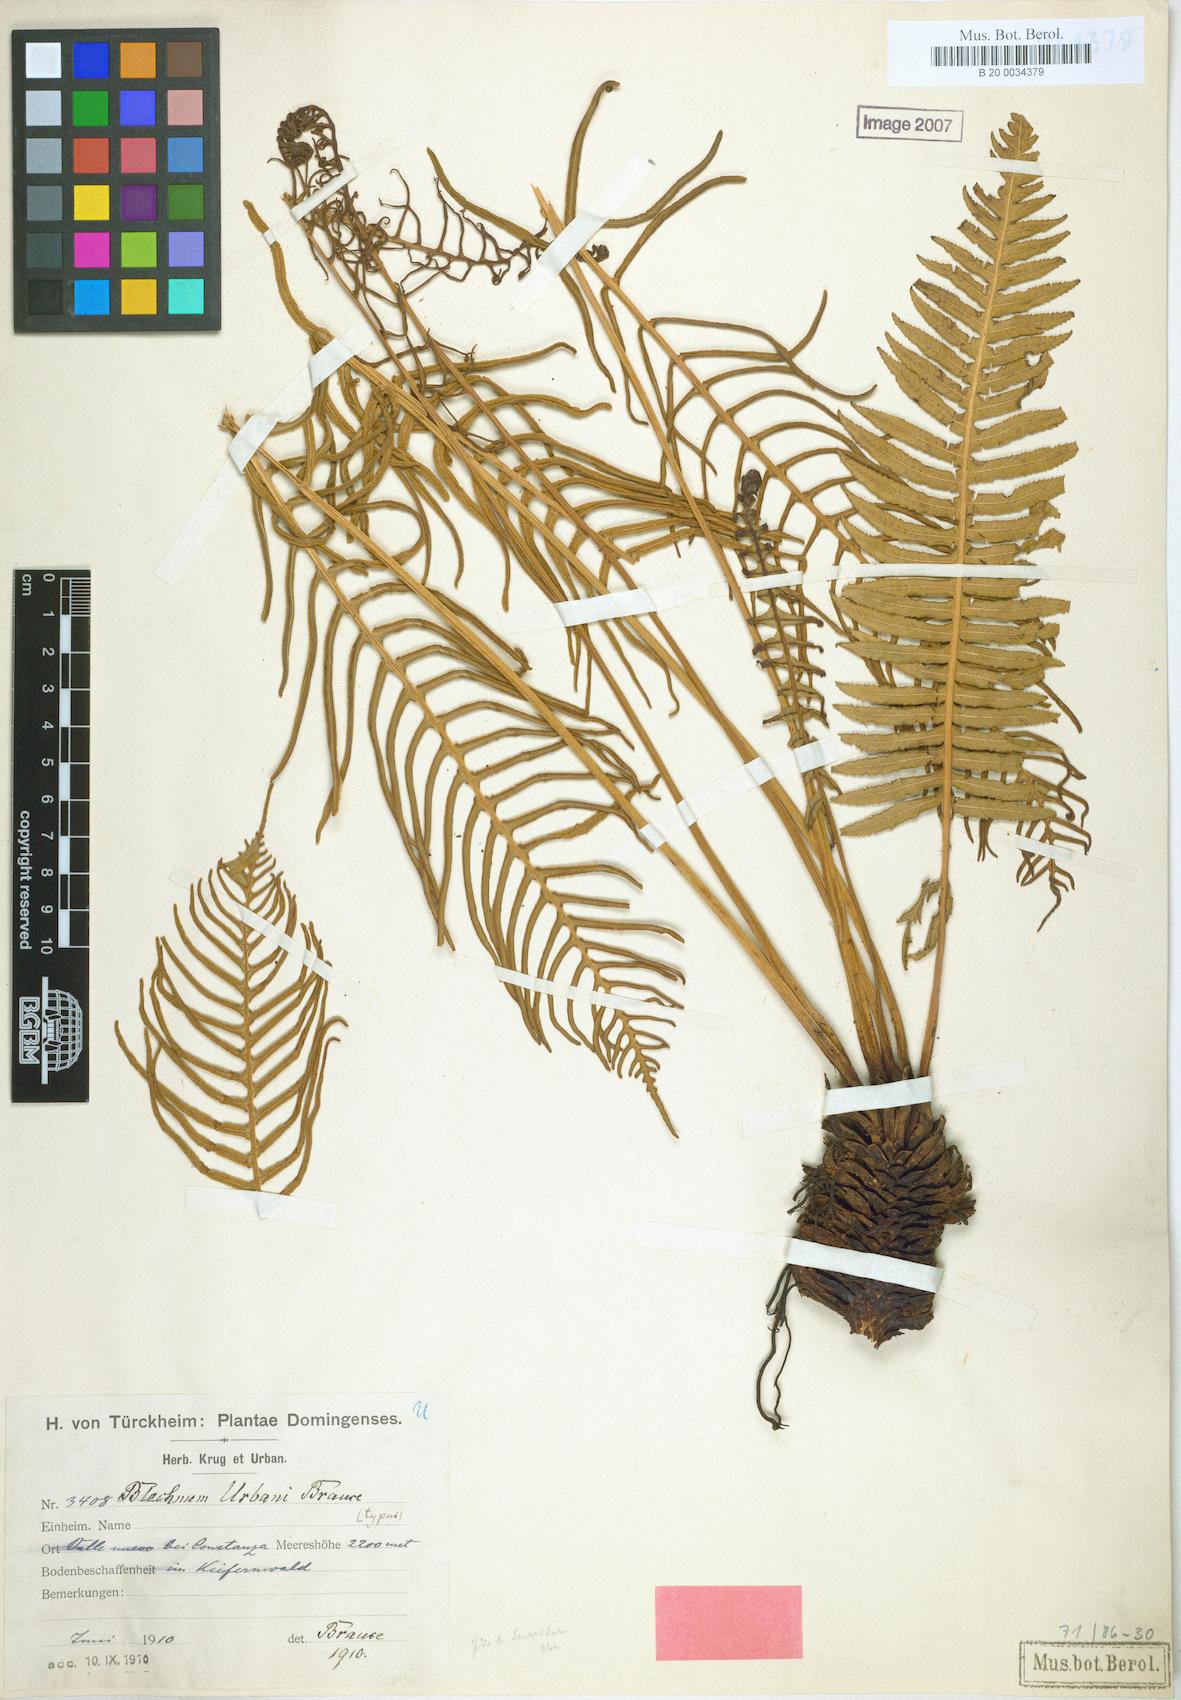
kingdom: Plantae
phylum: Tracheophyta
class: Polypodiopsida
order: Cyatheales
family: Plagiogyriaceae
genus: Plagiogyria
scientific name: Plagiogyria pectinata
